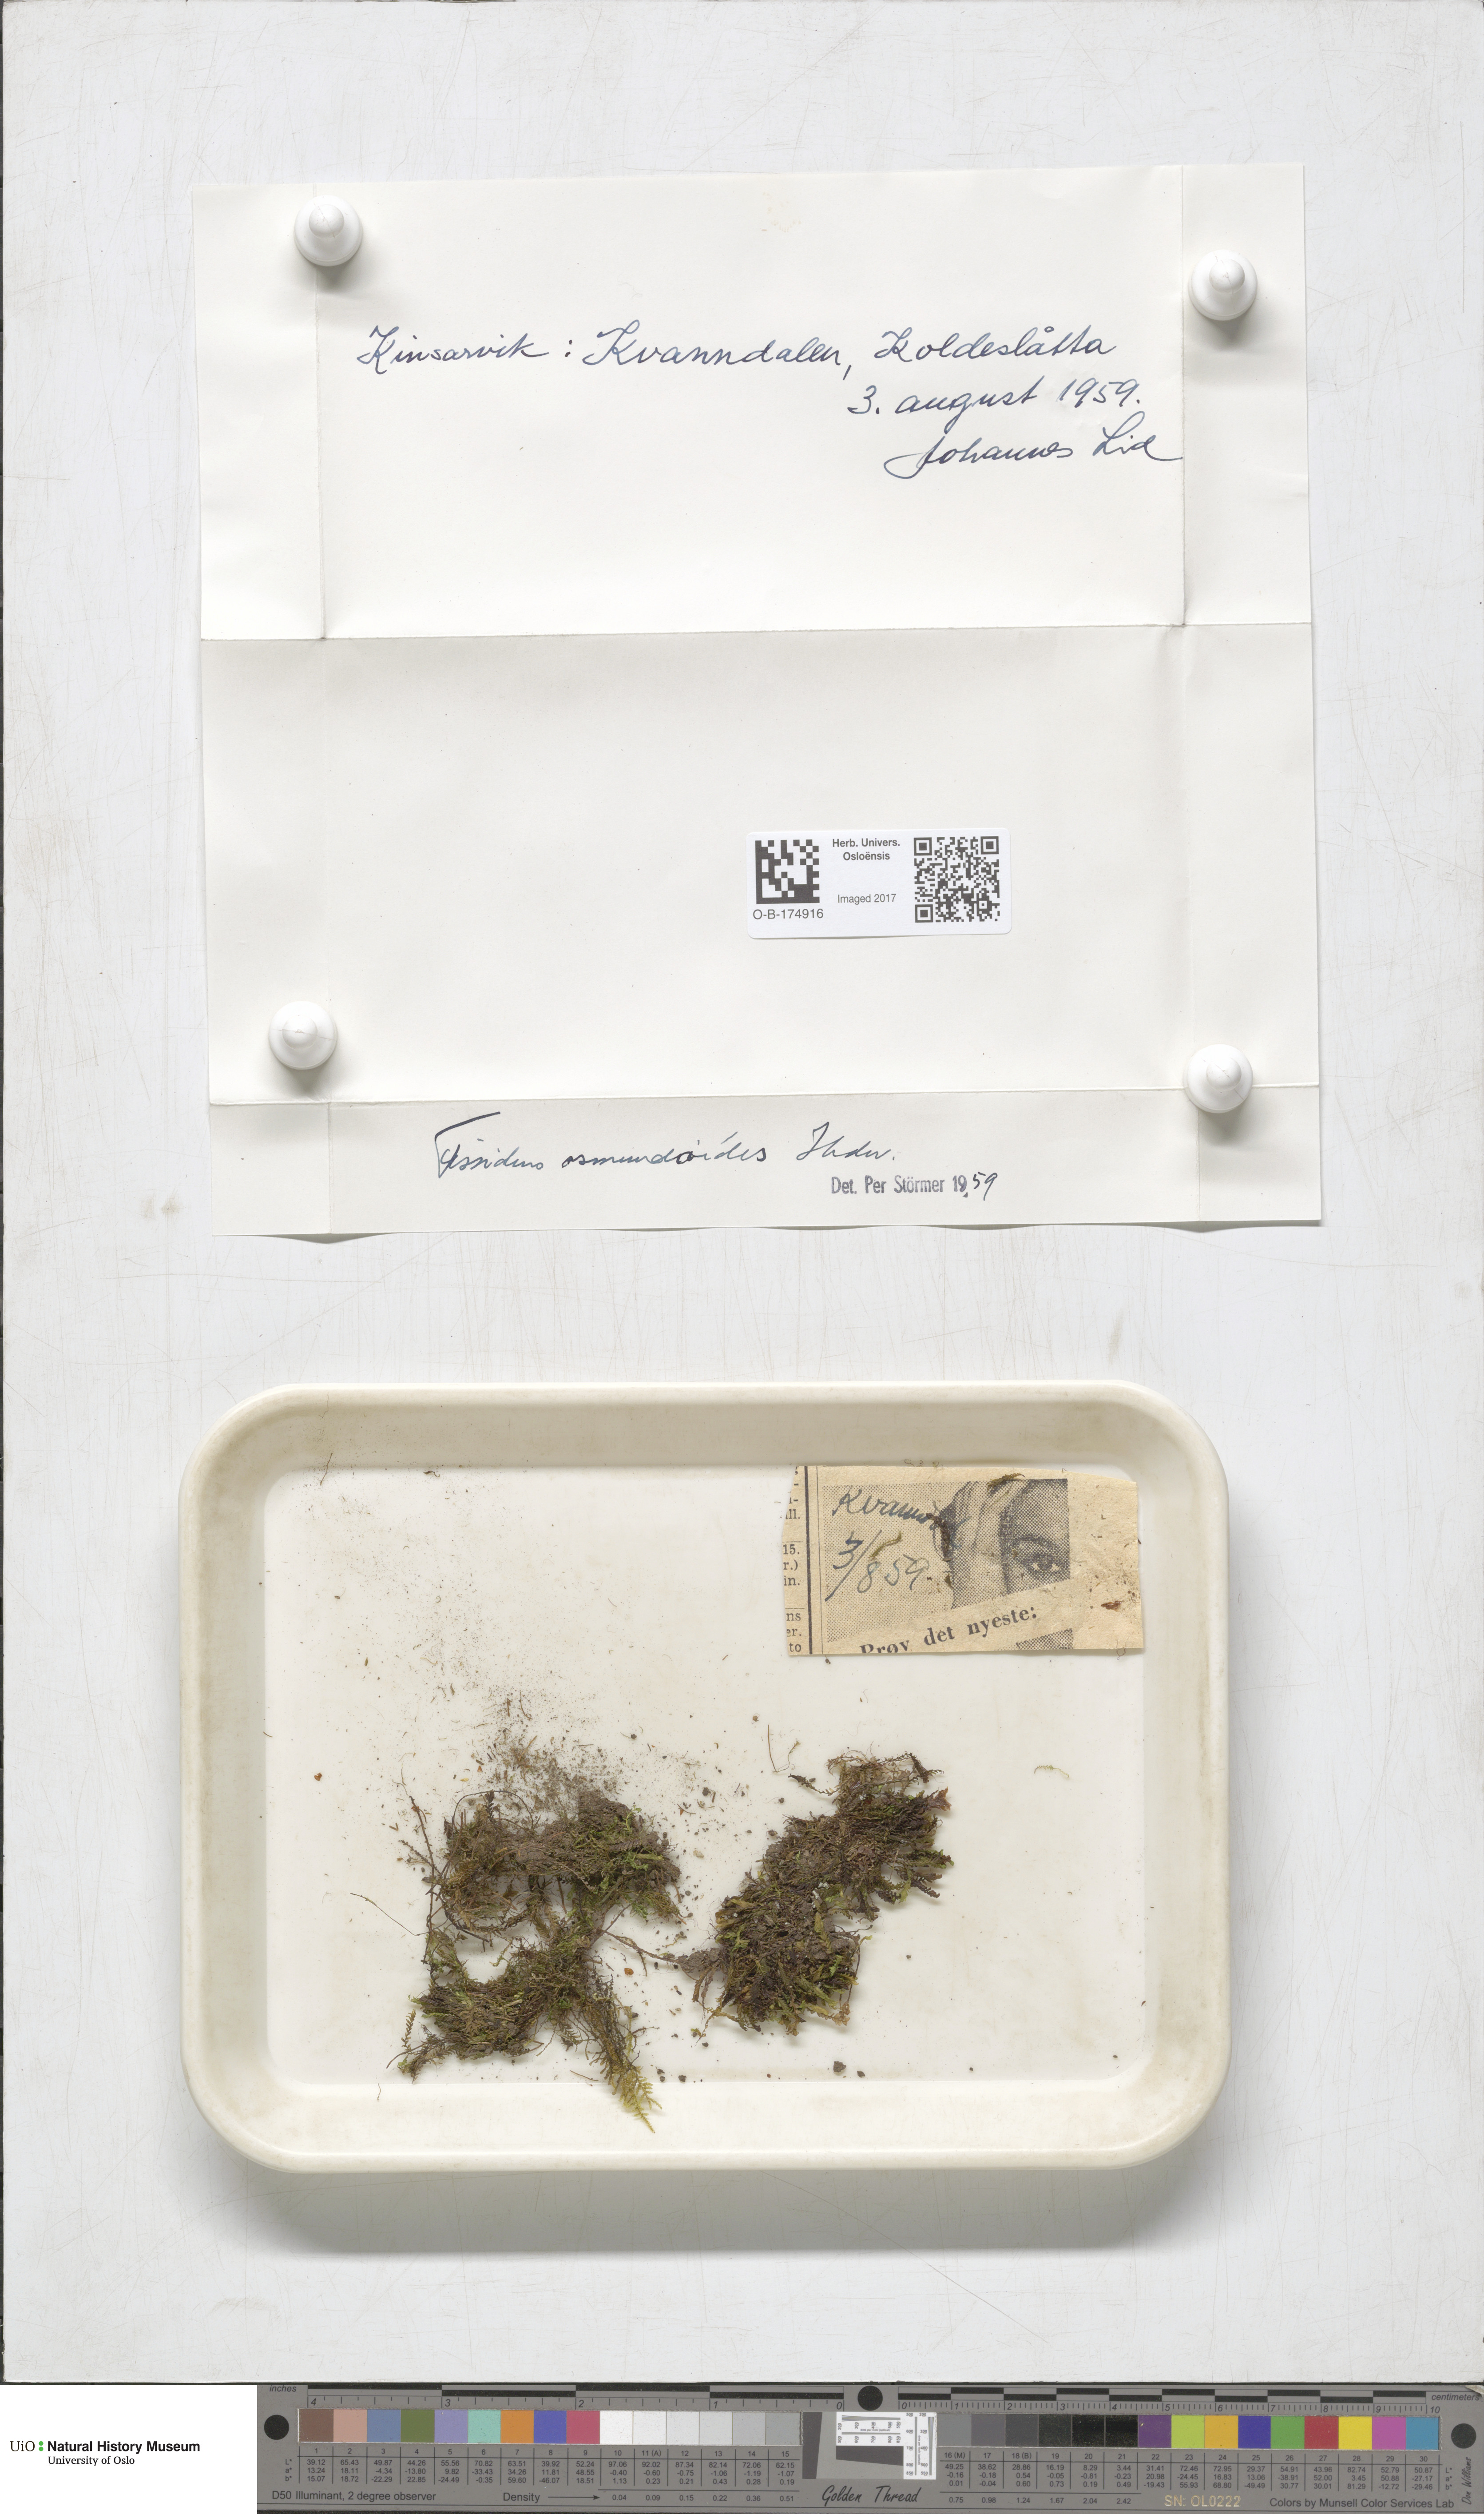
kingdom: Plantae
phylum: Bryophyta
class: Bryopsida
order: Dicranales
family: Fissidentaceae
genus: Fissidens
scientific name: Fissidens osmundoides
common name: Purple-stalked pocket moss
